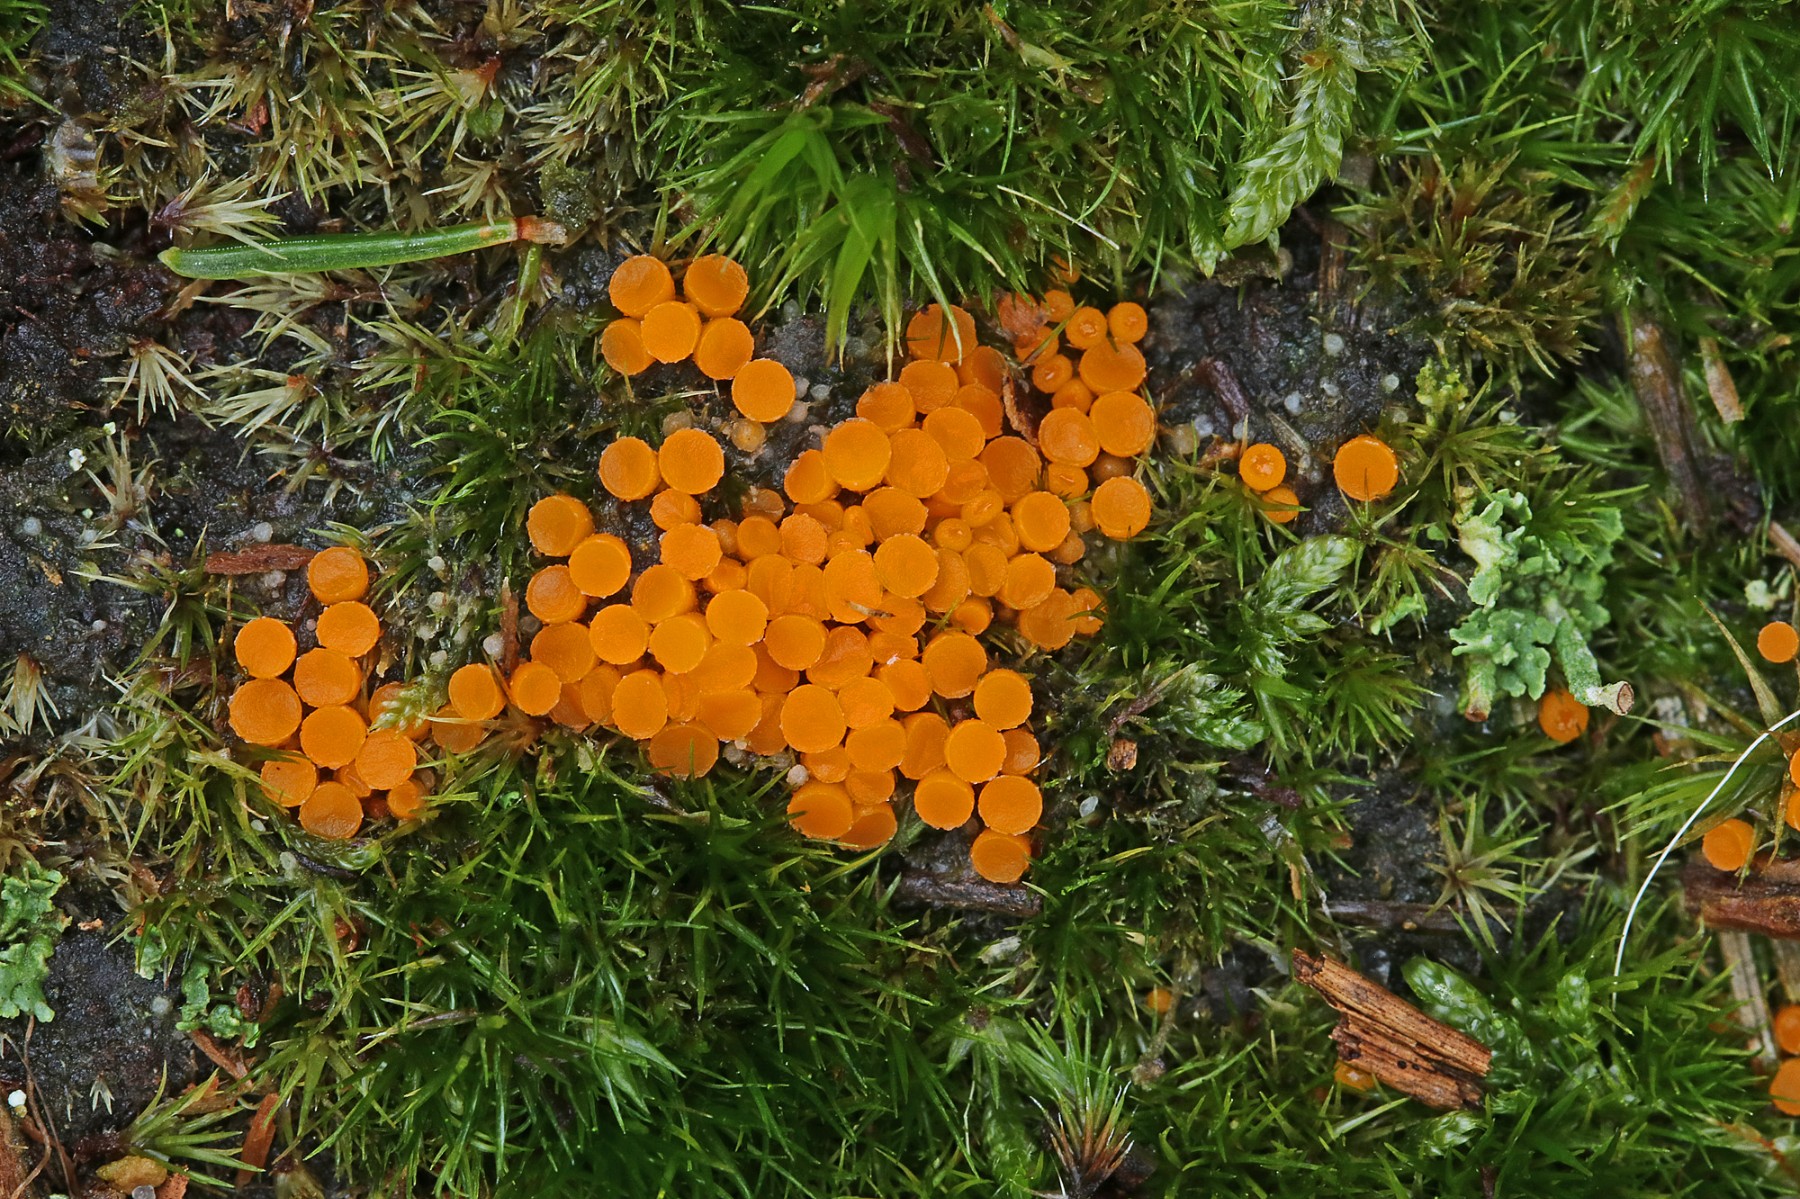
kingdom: Fungi
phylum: Ascomycota
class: Pezizomycetes
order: Pezizales
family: Pyronemataceae
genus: Byssonectria
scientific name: Byssonectria terrestris
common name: hjortebæger
